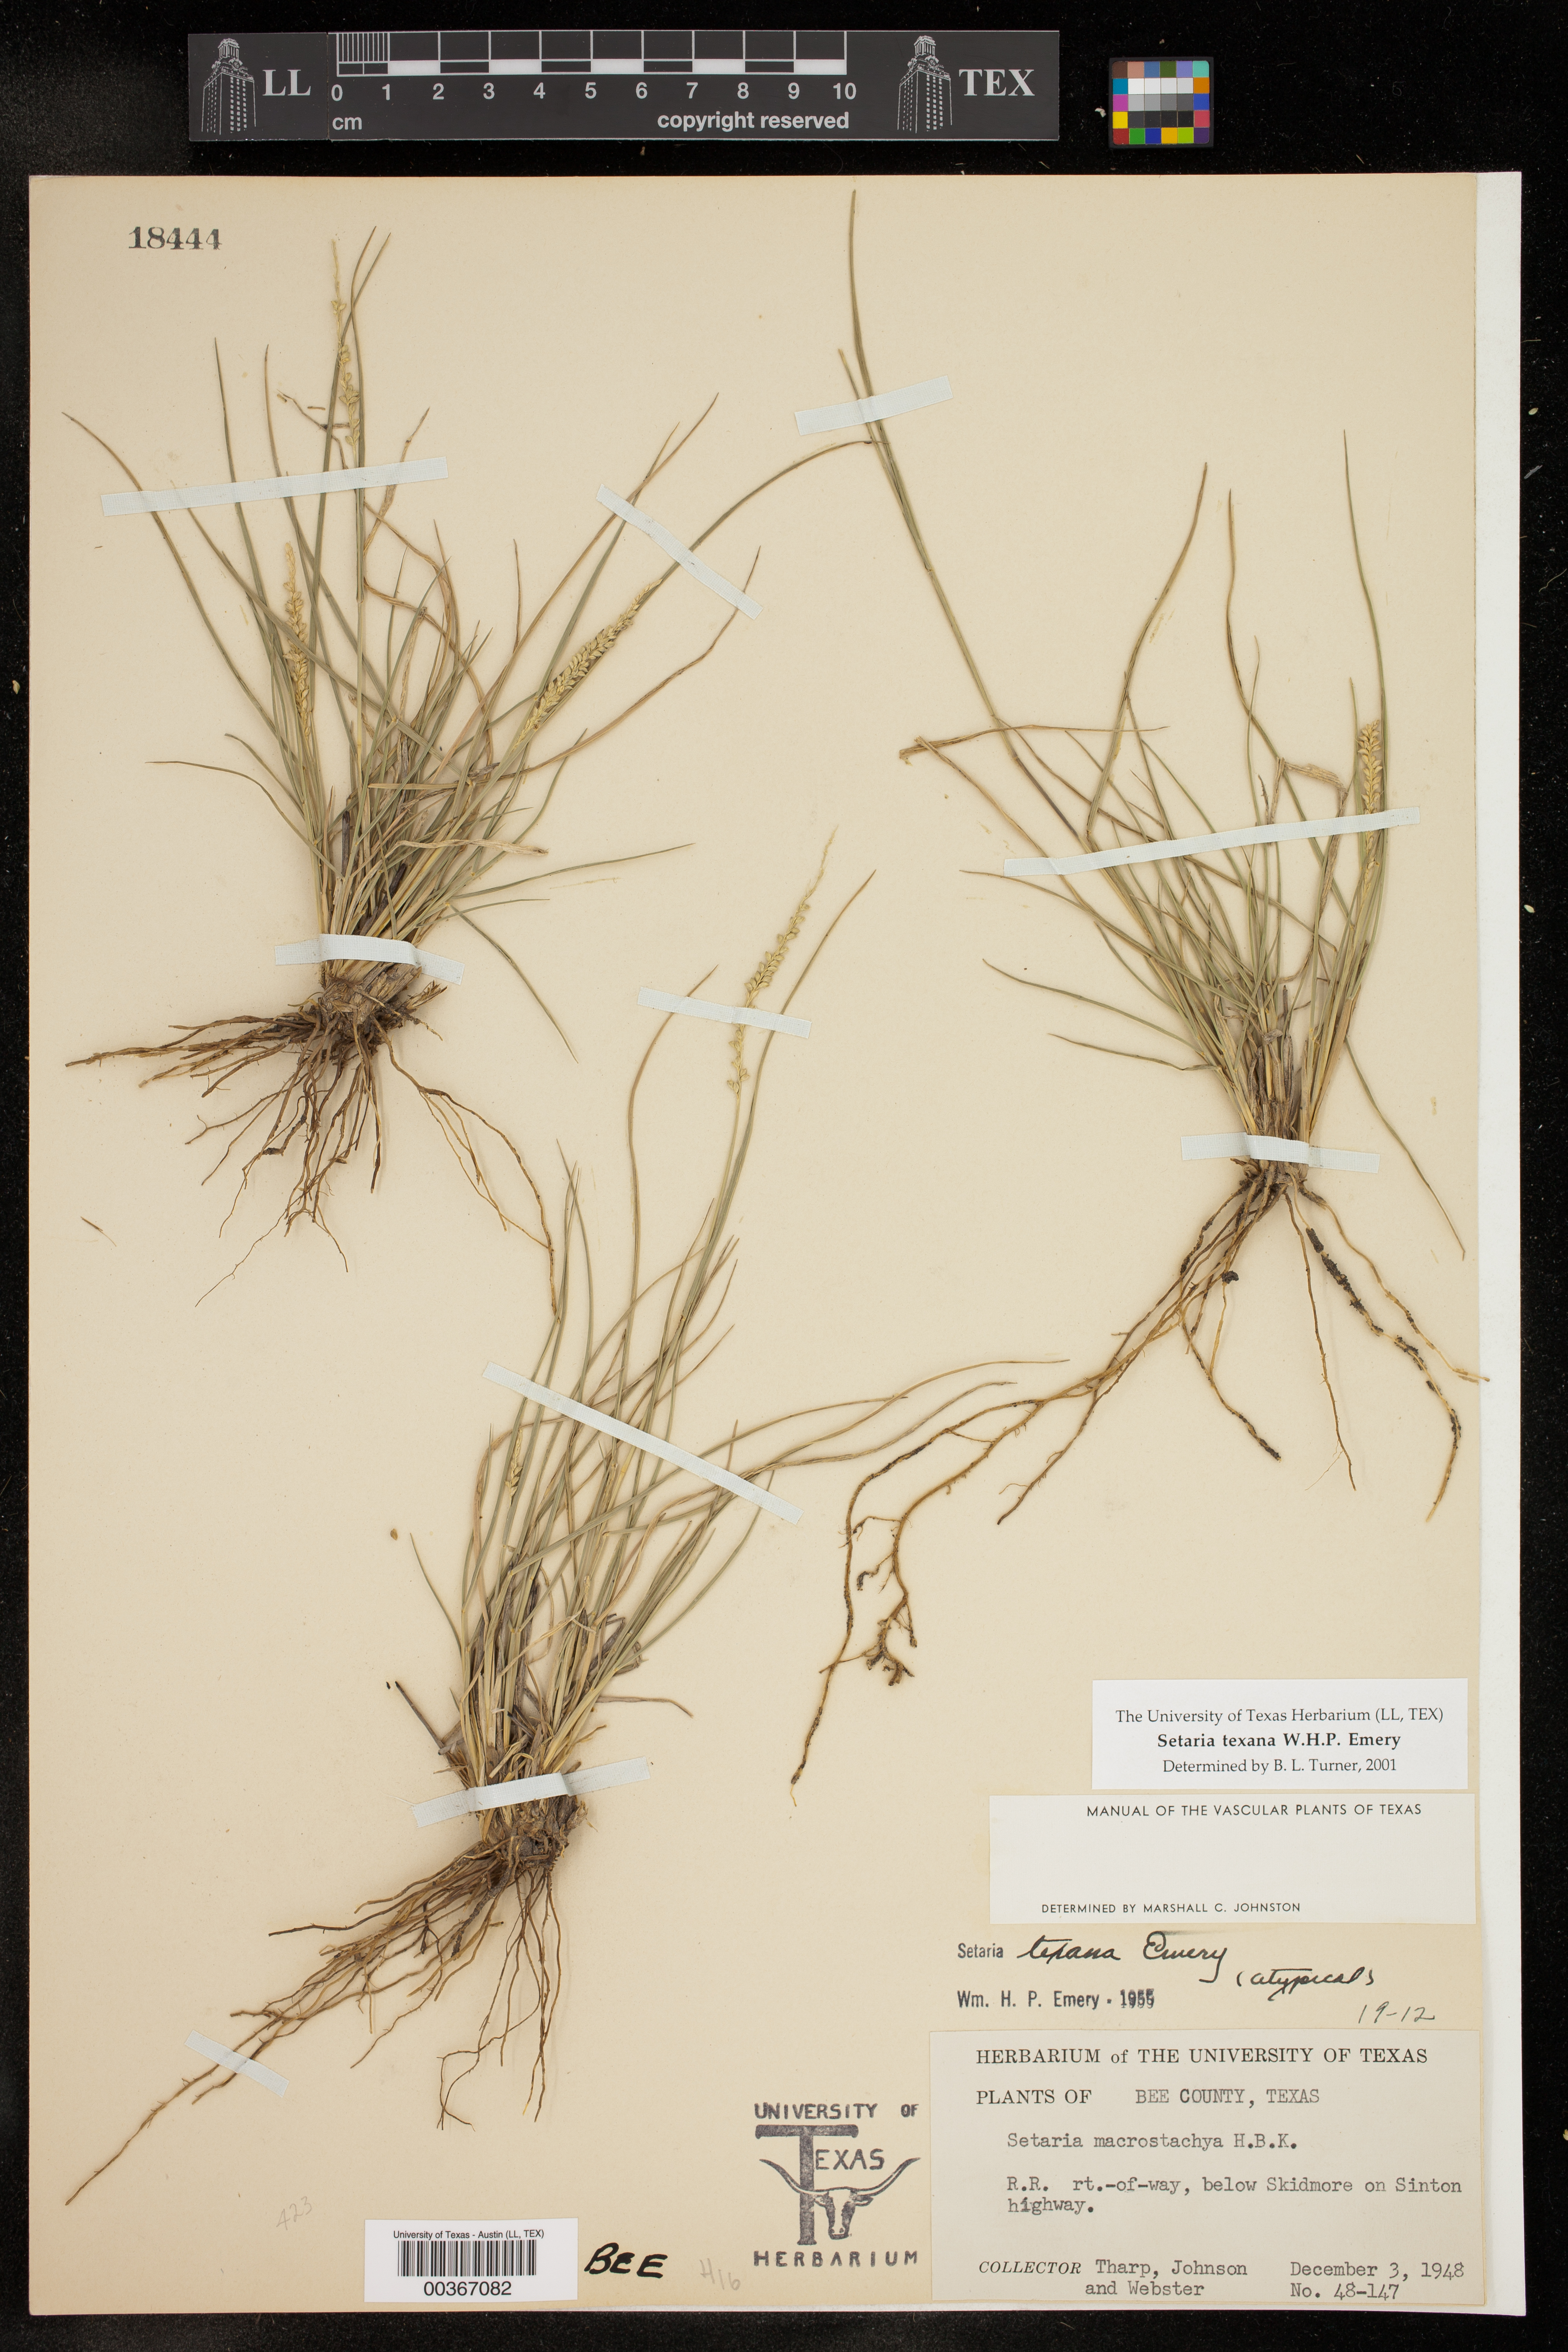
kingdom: Plantae
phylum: Tracheophyta
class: Liliopsida
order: Poales
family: Poaceae
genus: Setaria
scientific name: Setaria texana
